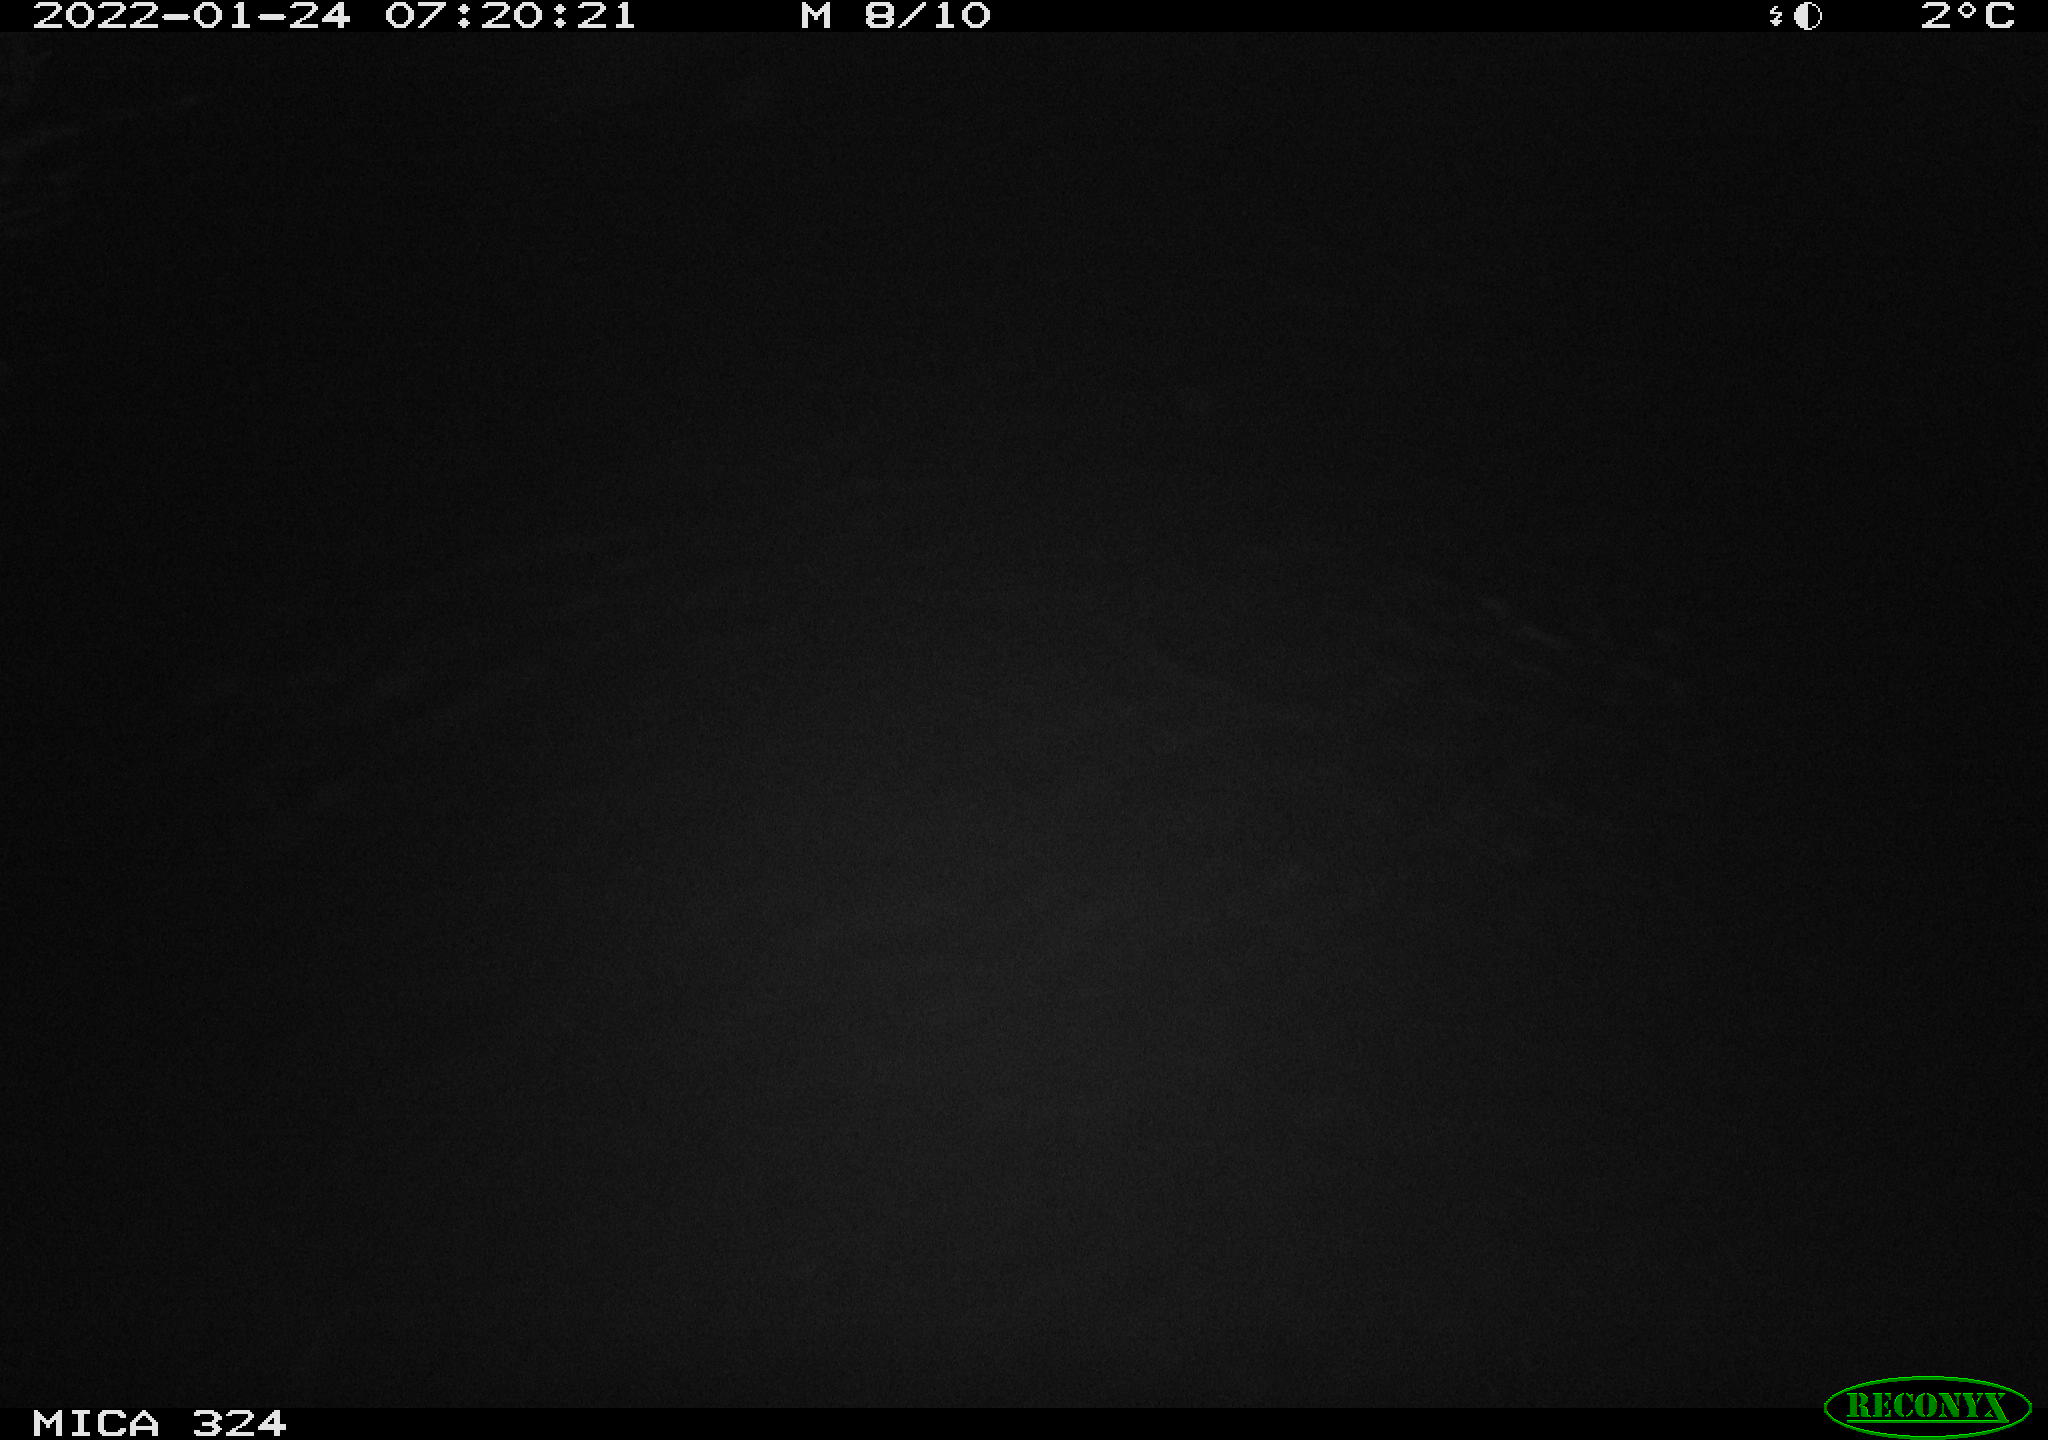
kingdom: Animalia
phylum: Chordata
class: Mammalia
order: Rodentia
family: Cricetidae
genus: Ondatra
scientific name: Ondatra zibethicus
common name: Muskrat
